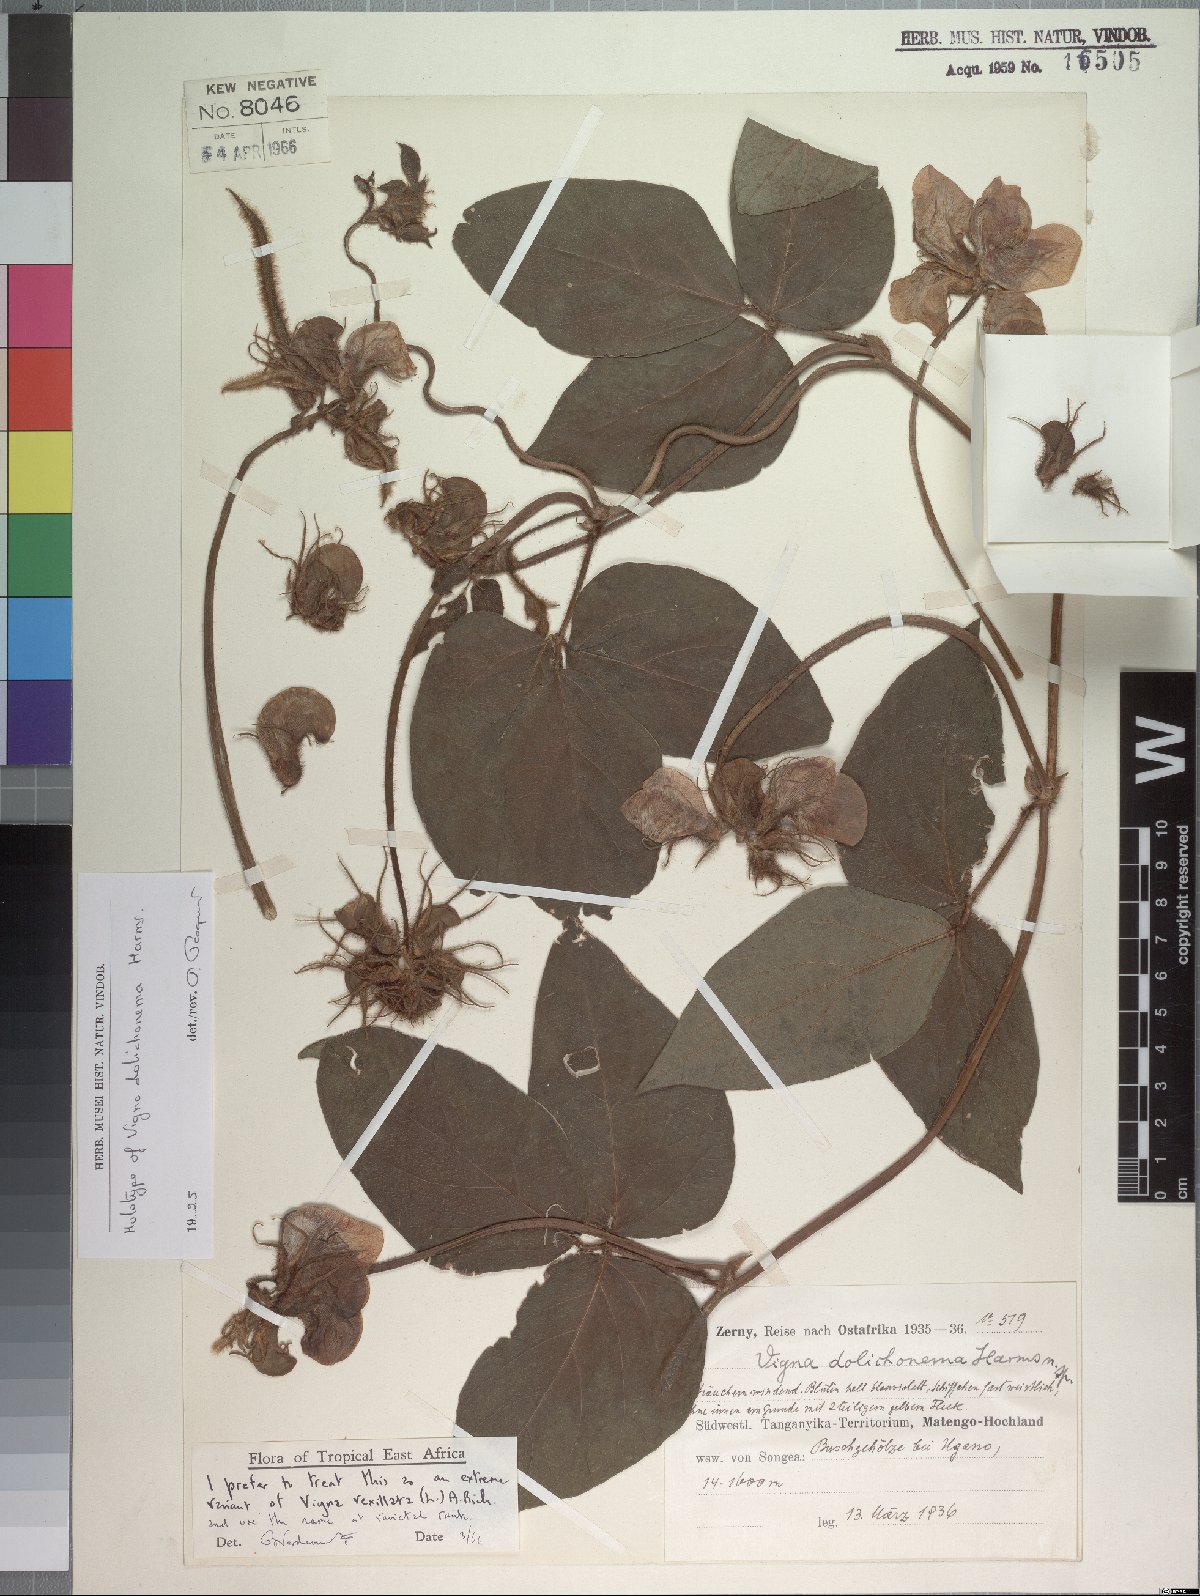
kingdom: Plantae
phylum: Tracheophyta
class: Magnoliopsida
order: Fabales
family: Fabaceae
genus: Vigna
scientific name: Vigna vexillata
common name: Zombi pea
